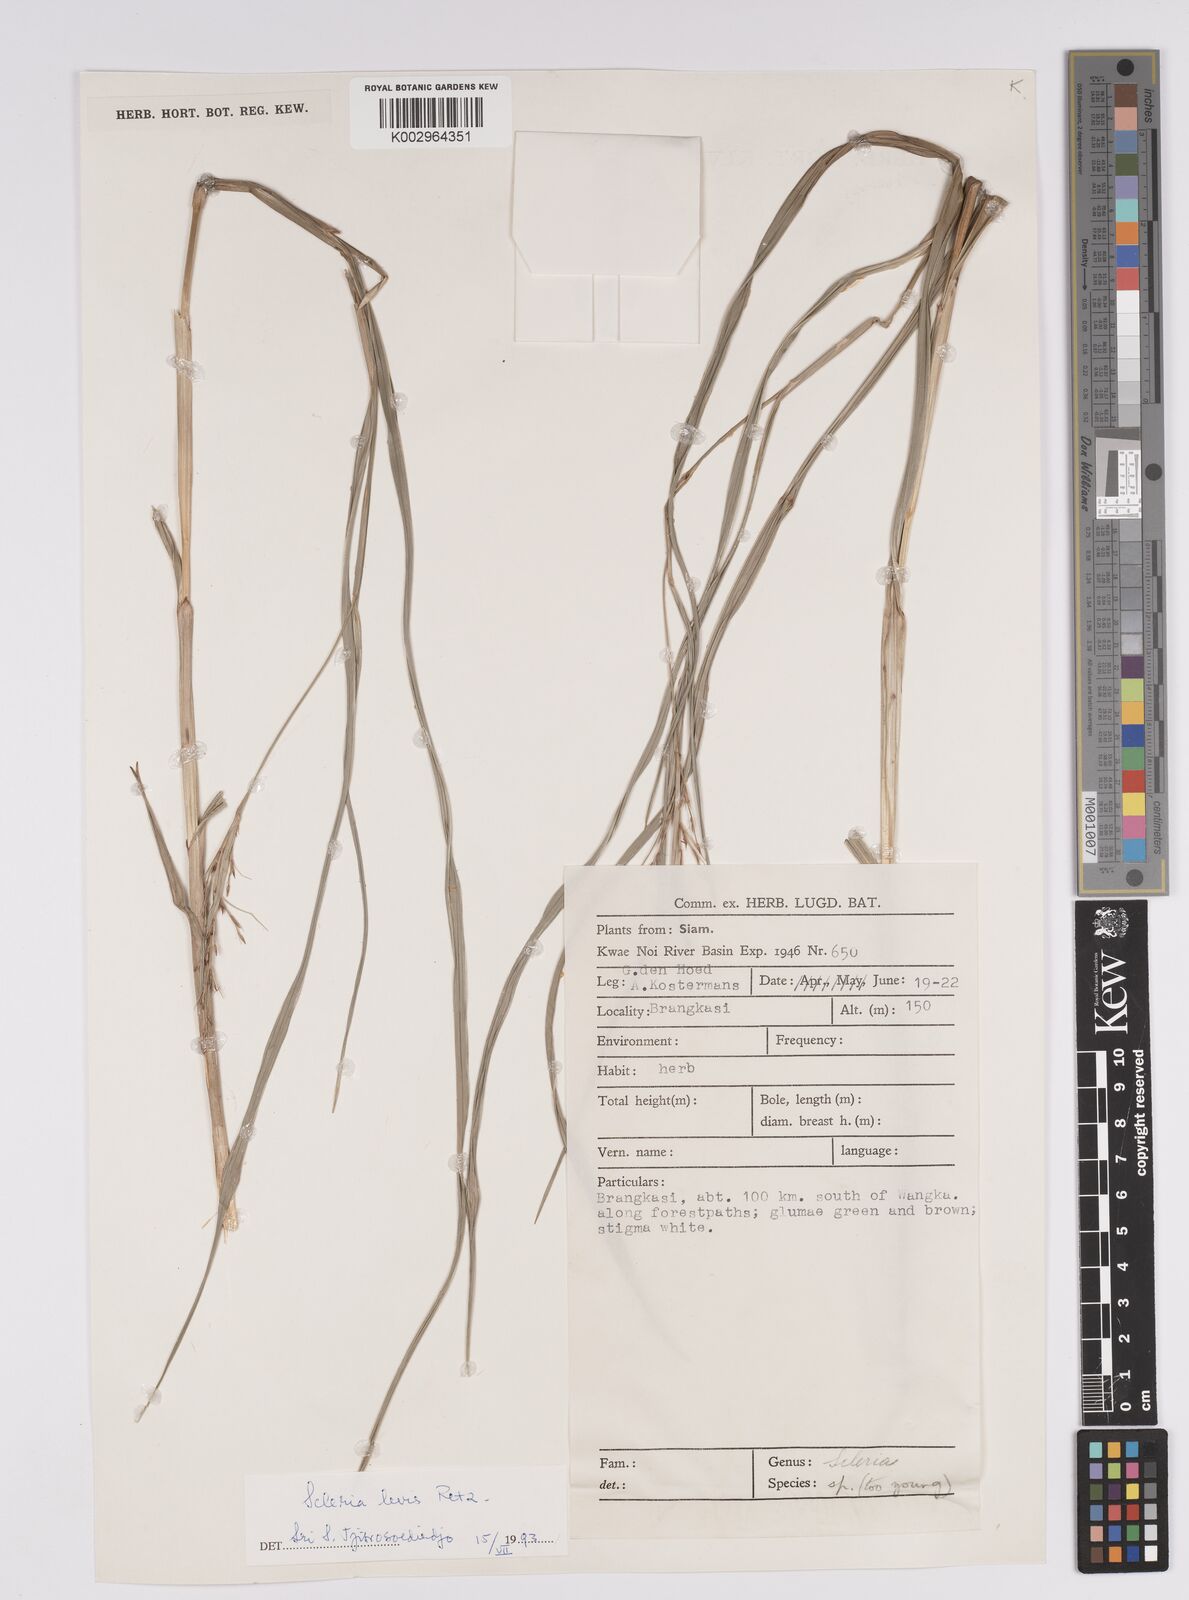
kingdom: Plantae
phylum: Tracheophyta
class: Liliopsida
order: Poales
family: Cyperaceae
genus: Scleria
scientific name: Scleria levis
